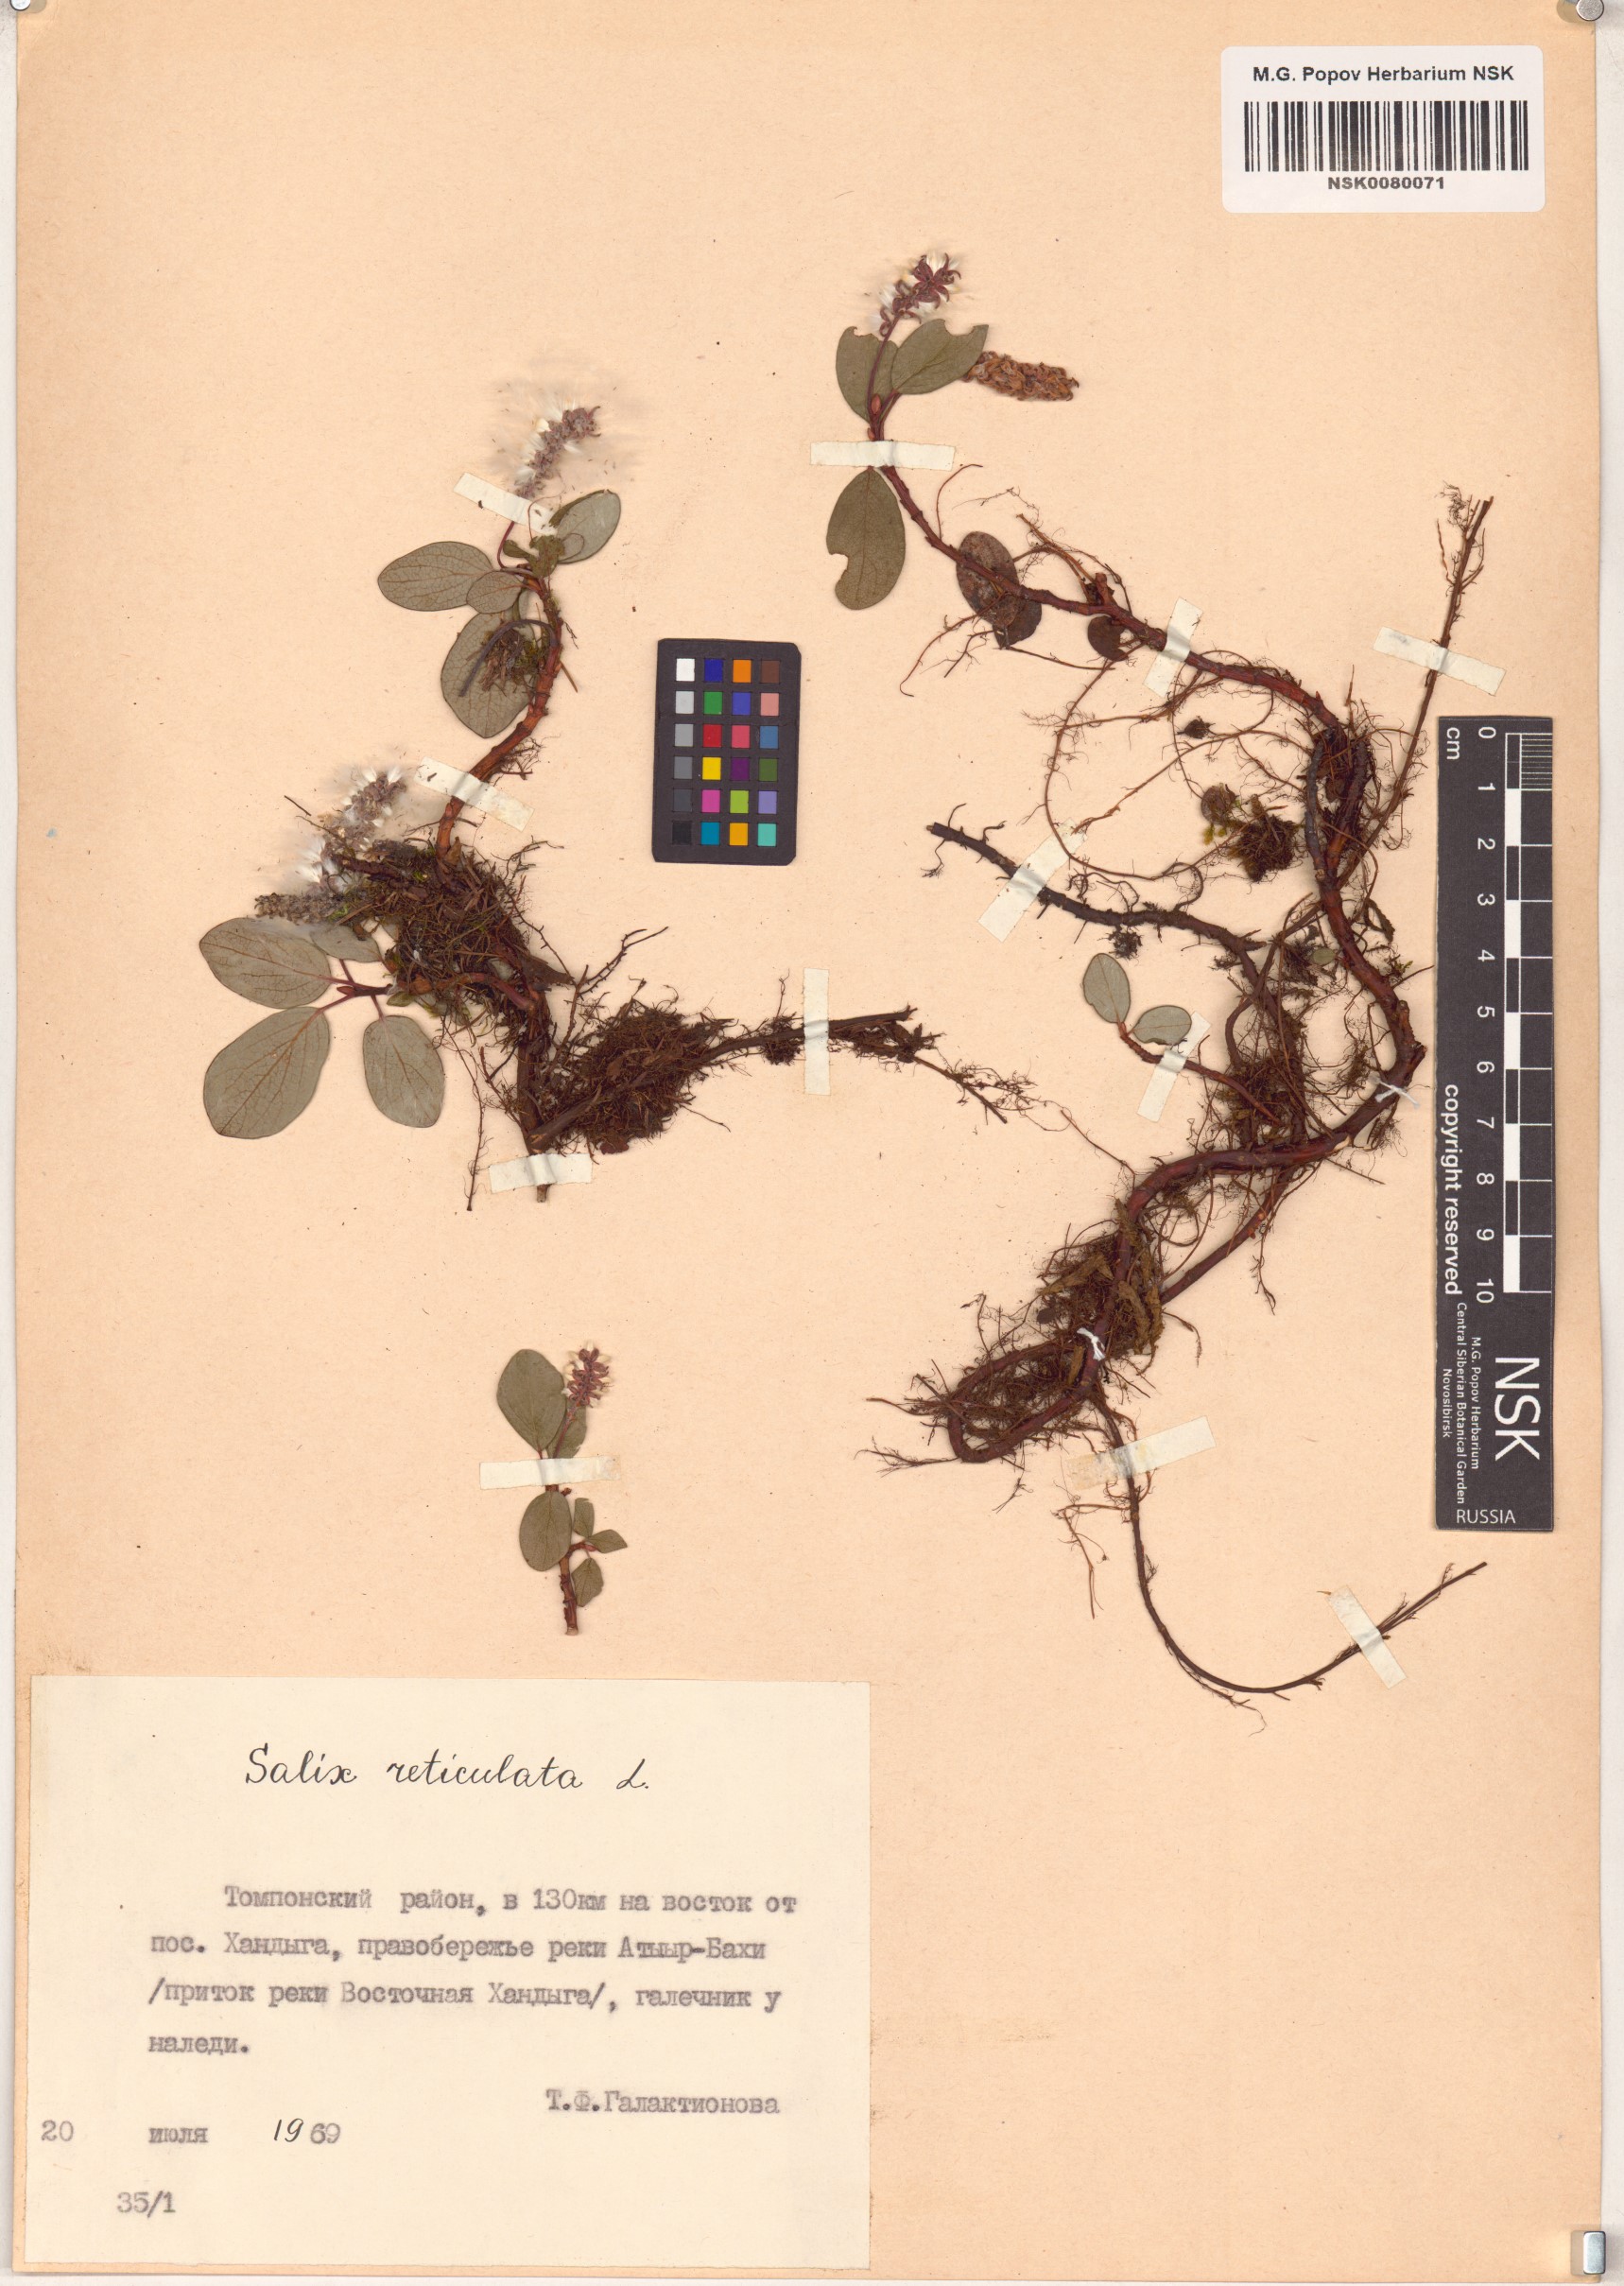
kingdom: Plantae
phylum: Tracheophyta
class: Magnoliopsida
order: Malpighiales
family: Salicaceae
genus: Salix
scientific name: Salix reticulata
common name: Net-leaved willow
